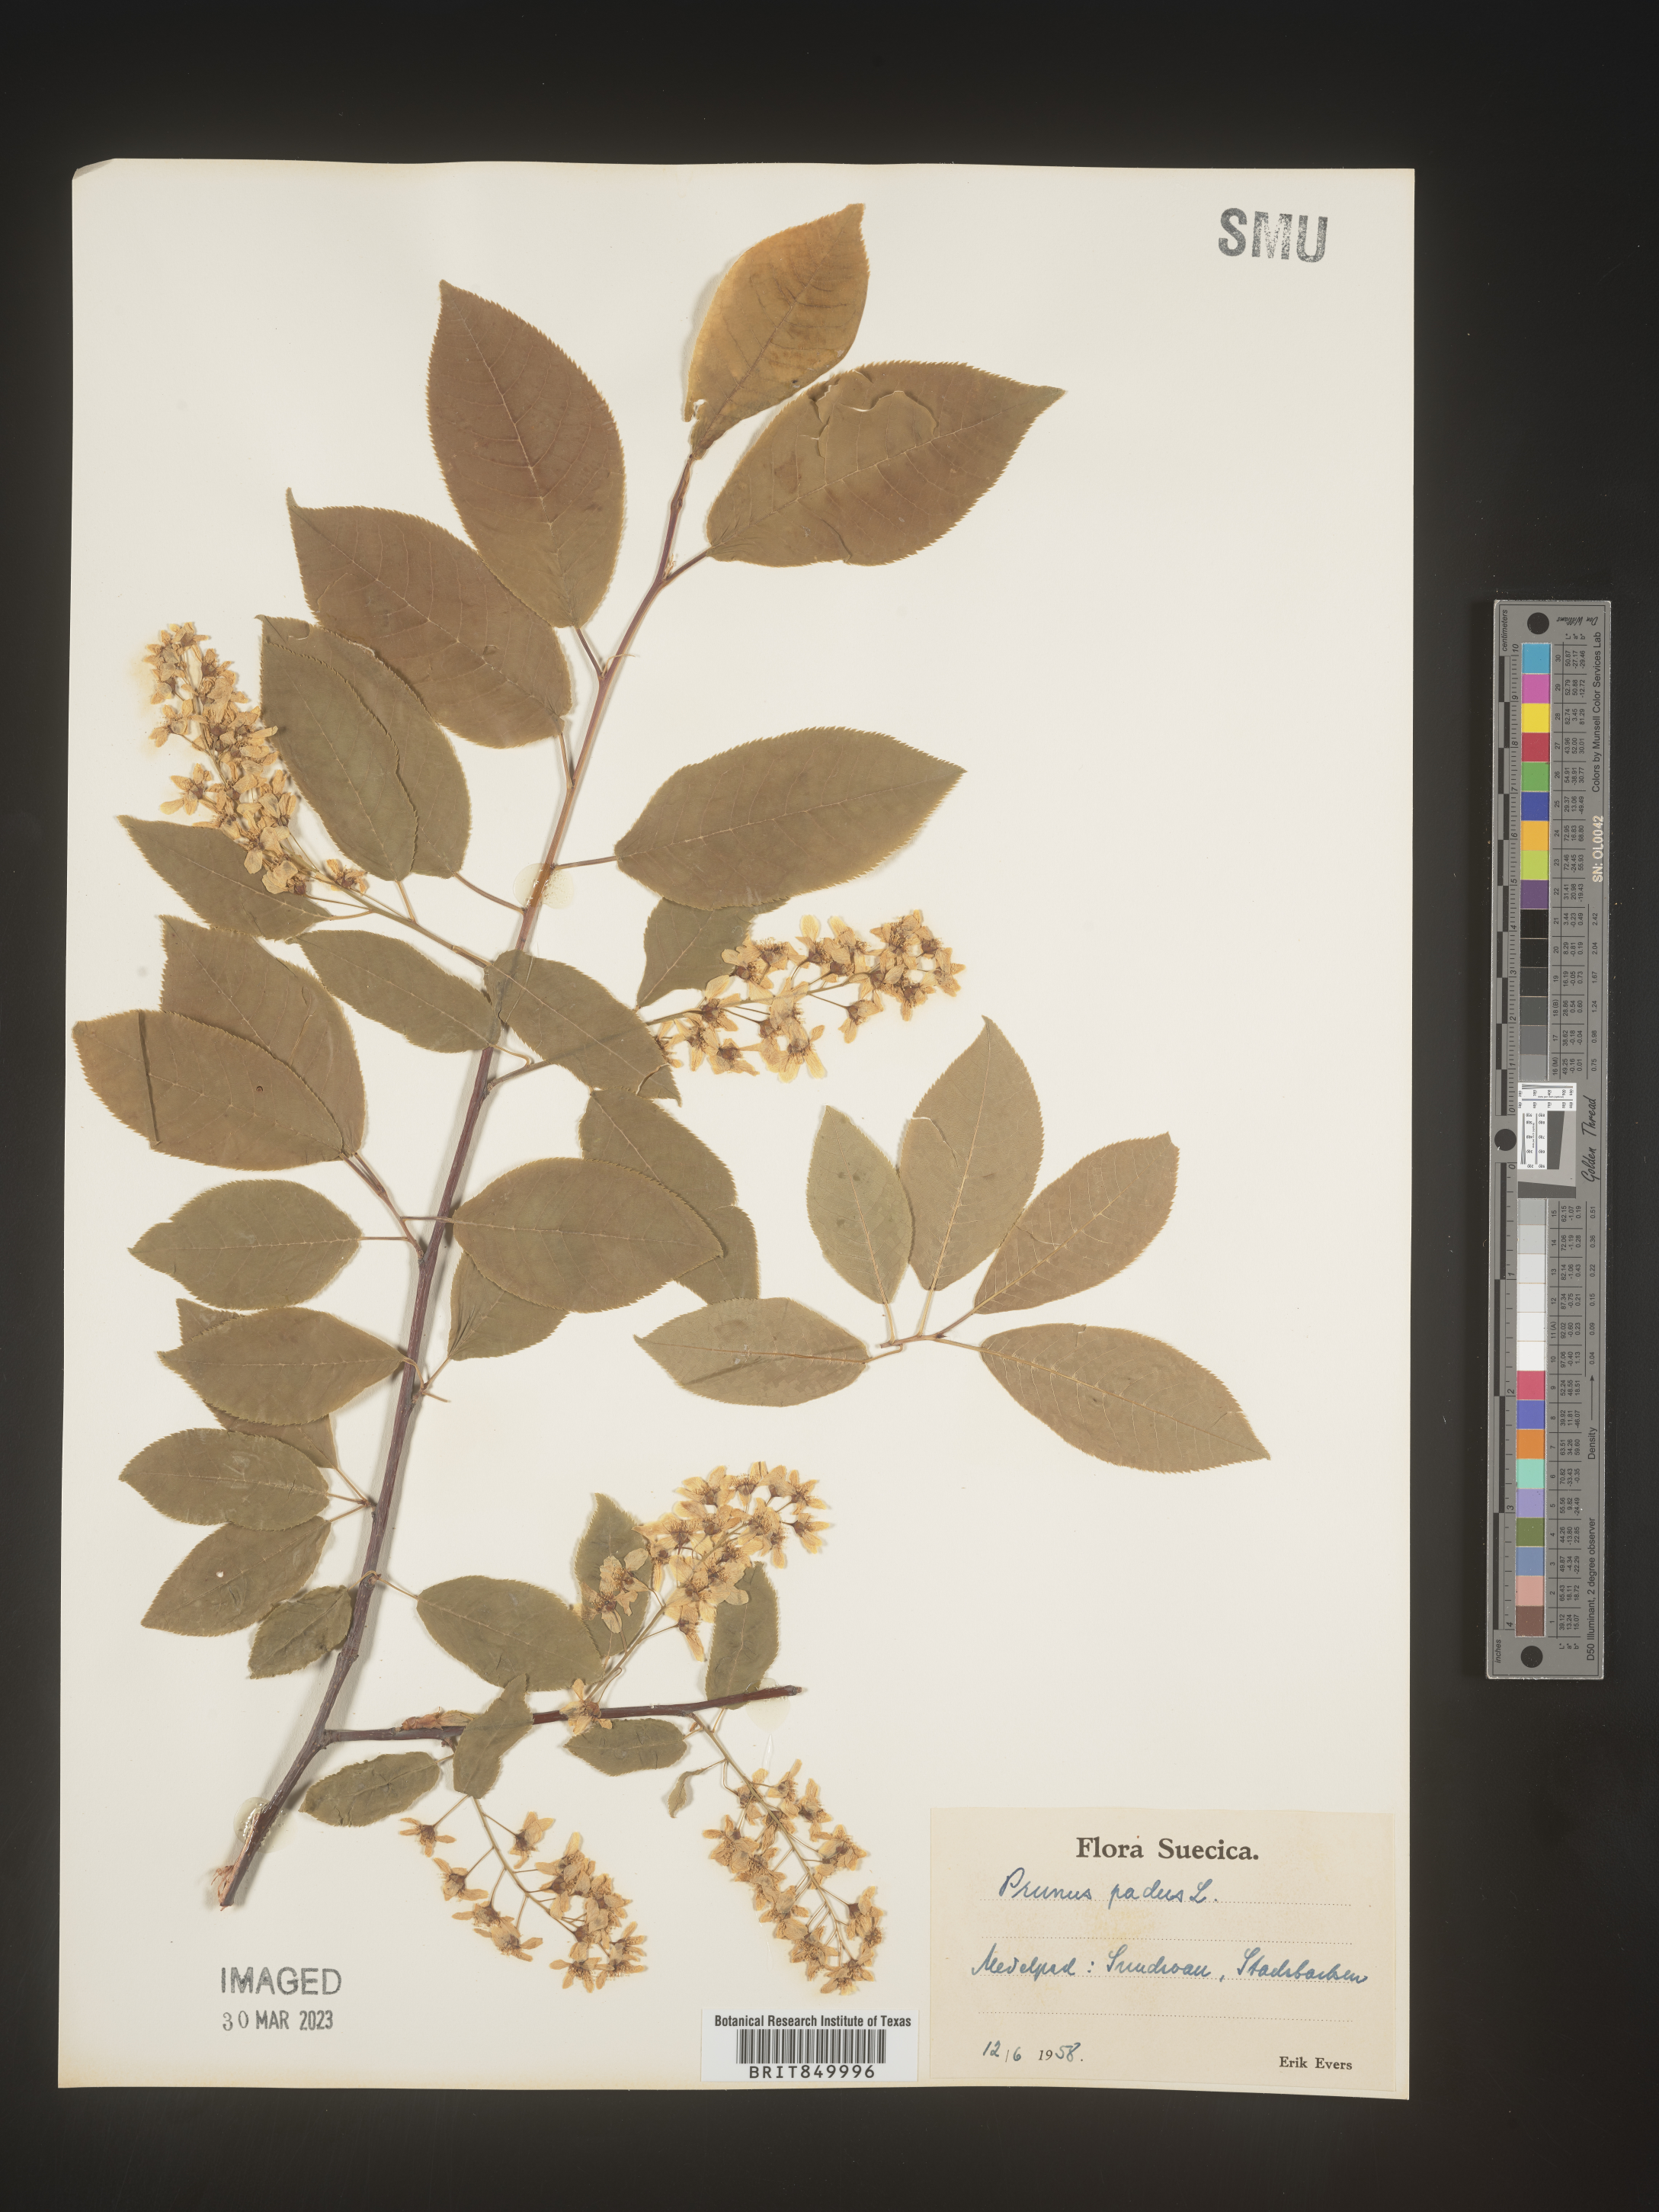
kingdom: Plantae
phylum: Tracheophyta
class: Magnoliopsida
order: Rosales
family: Rosaceae
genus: Prunus
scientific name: Prunus
